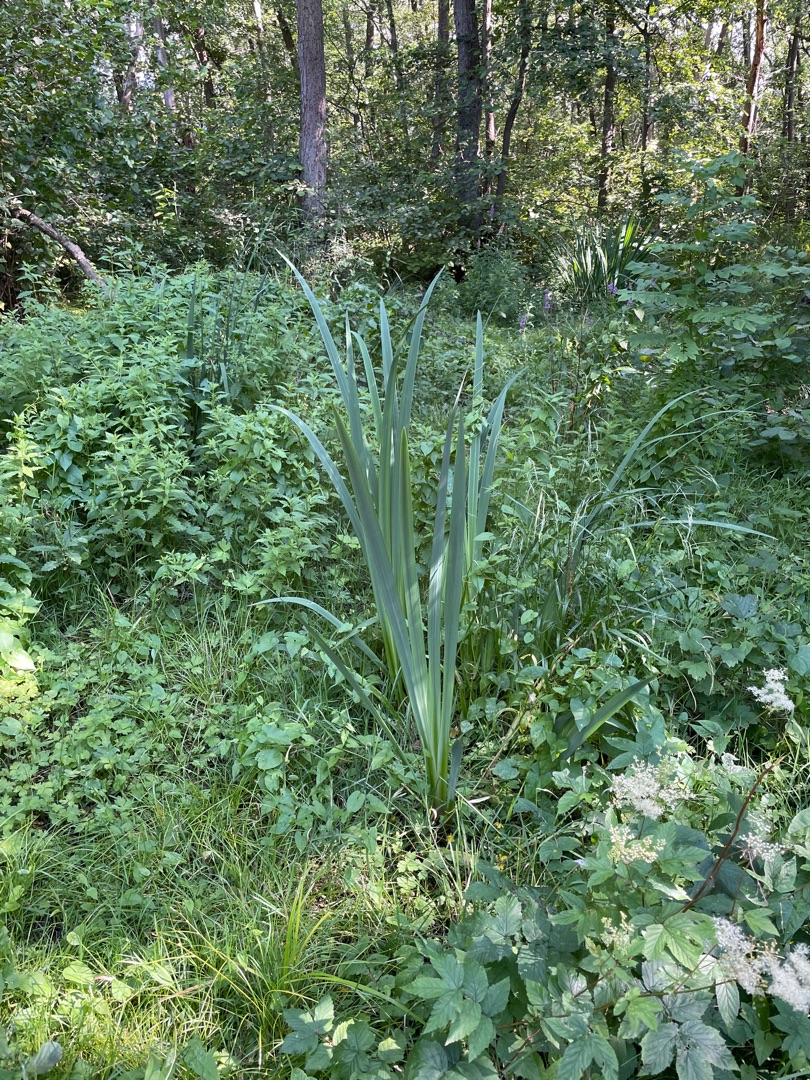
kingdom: Plantae
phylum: Tracheophyta
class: Liliopsida
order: Asparagales
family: Iridaceae
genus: Iris
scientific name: Iris pseudacorus
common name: Gul iris
